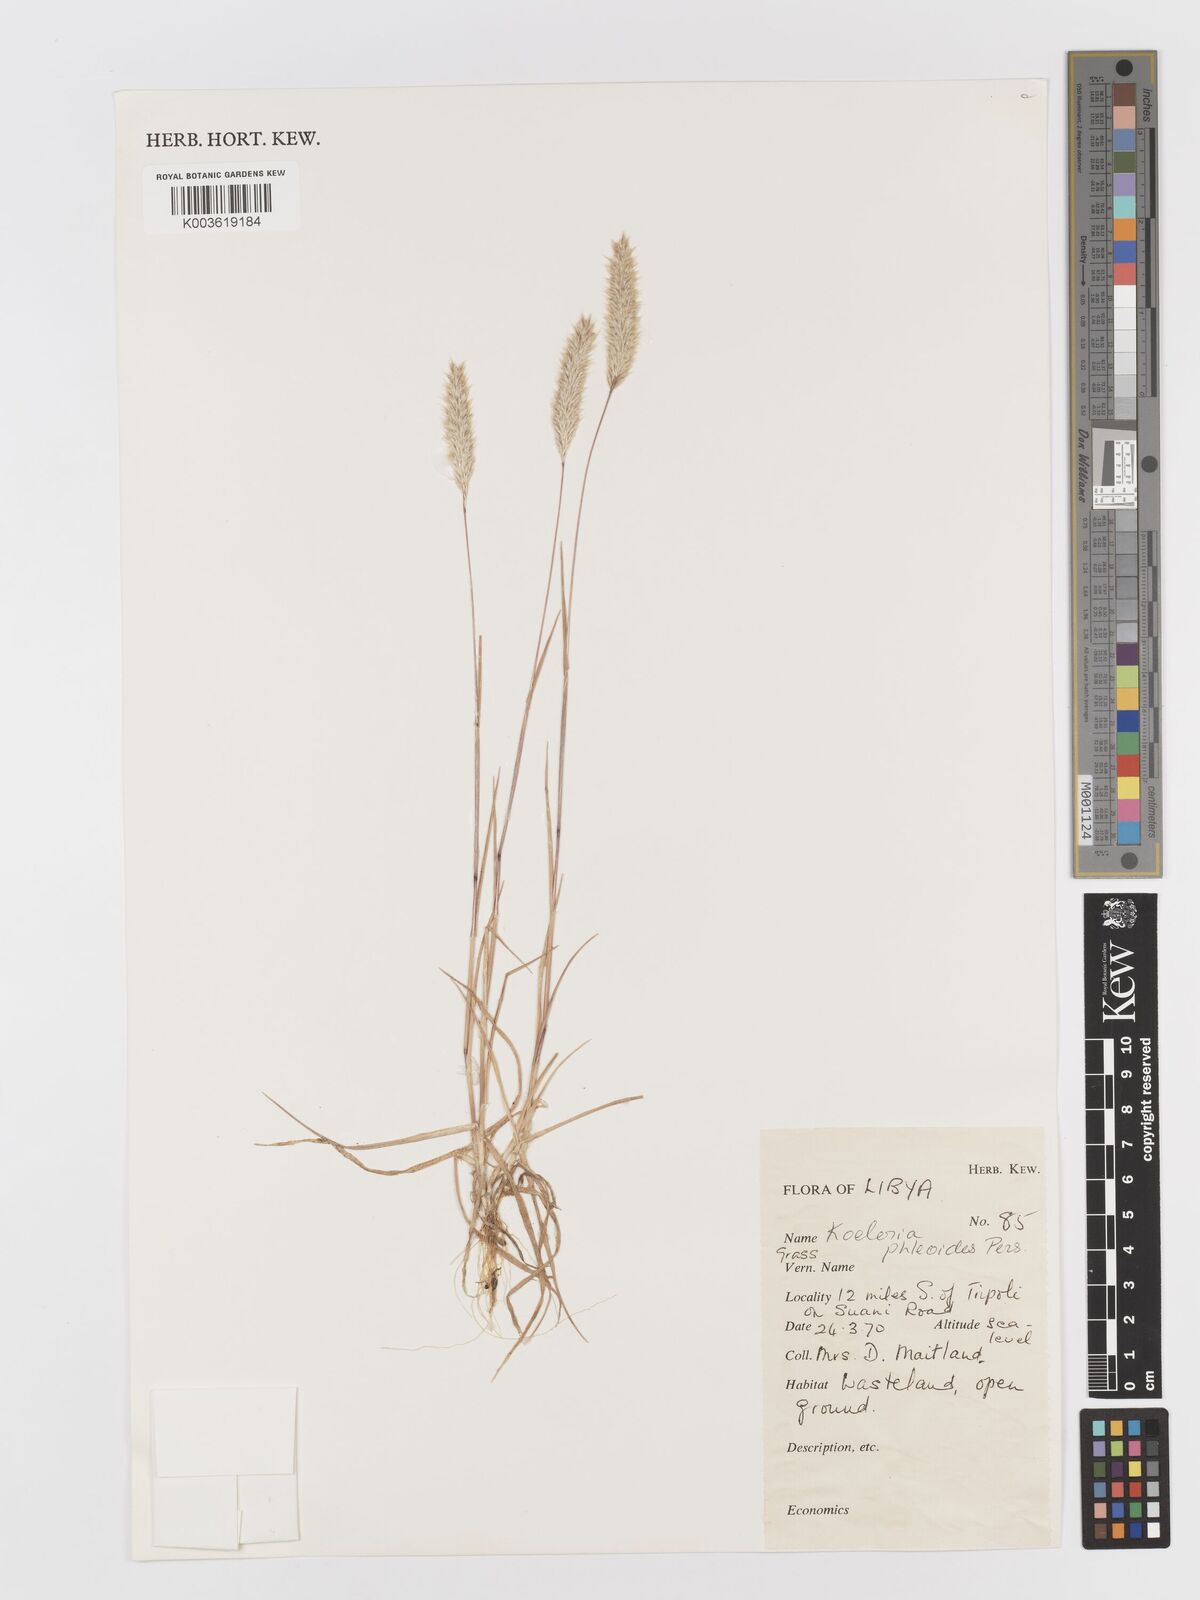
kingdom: Plantae
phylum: Tracheophyta
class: Liliopsida
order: Poales
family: Poaceae
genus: Rostraria
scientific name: Rostraria cristata
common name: Mediterranean hair-grass
